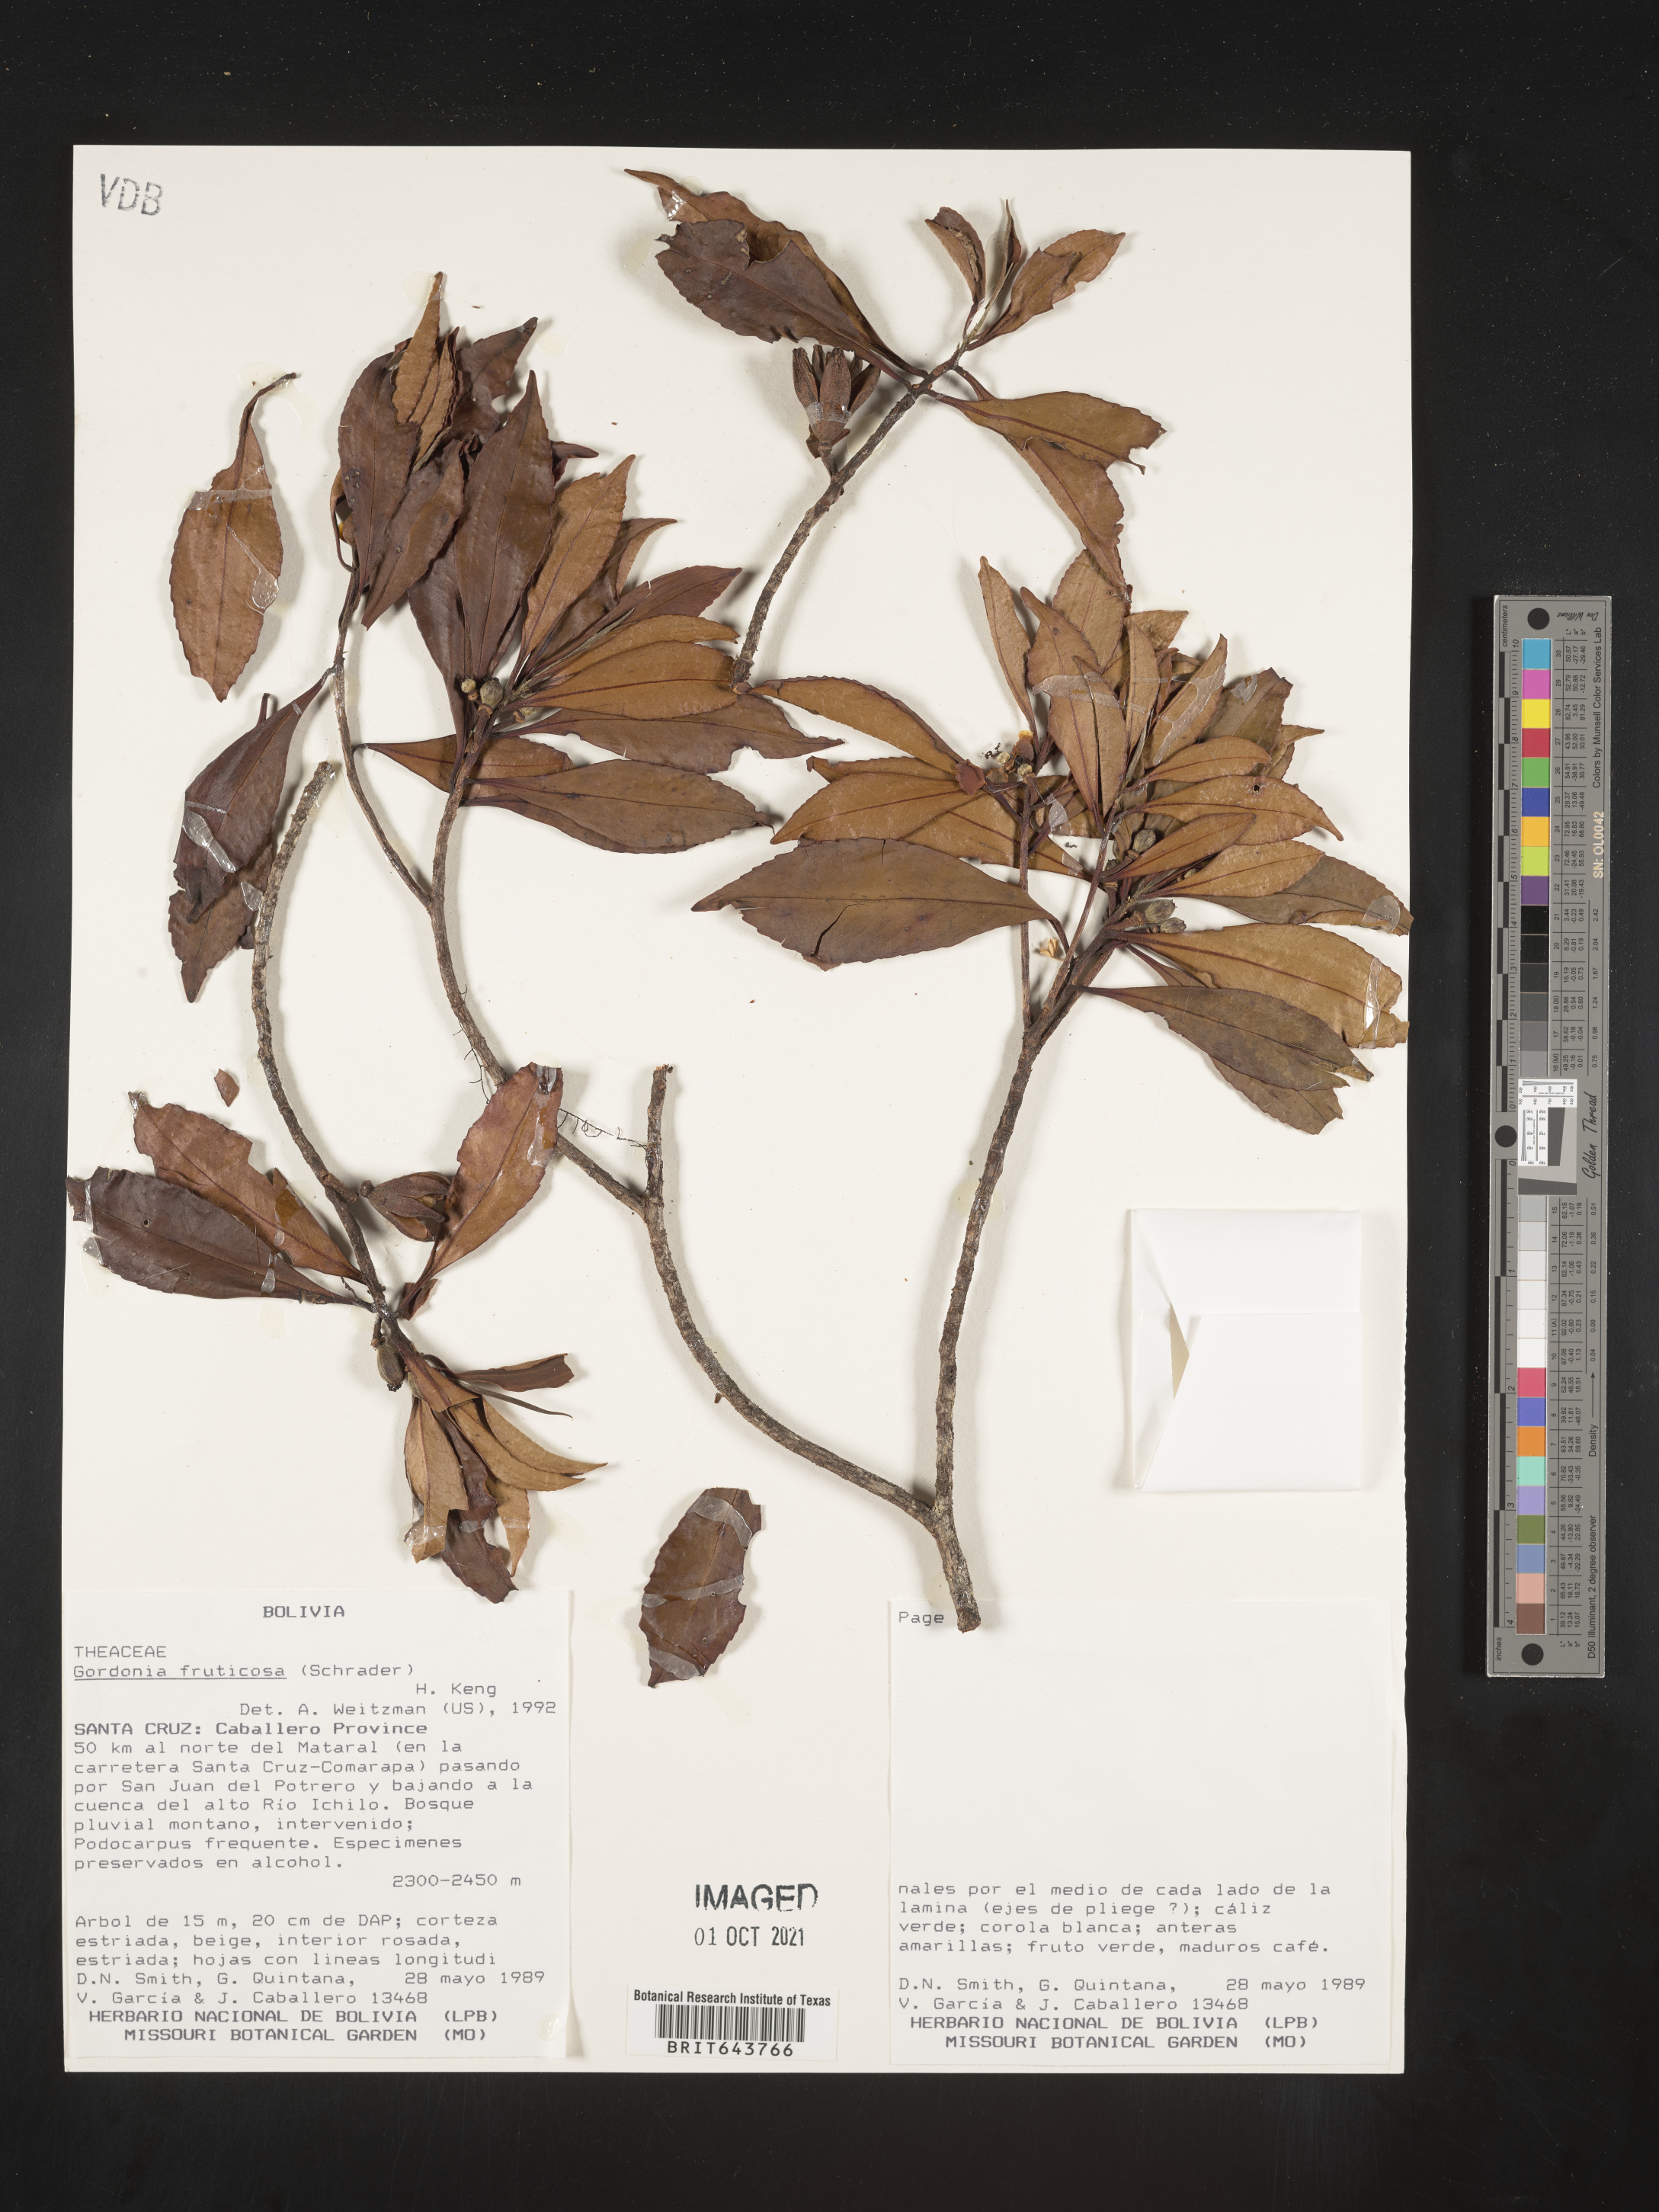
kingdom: Plantae
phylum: Tracheophyta
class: Magnoliopsida
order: Ericales
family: Theaceae
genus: Gordonia
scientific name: Gordonia
